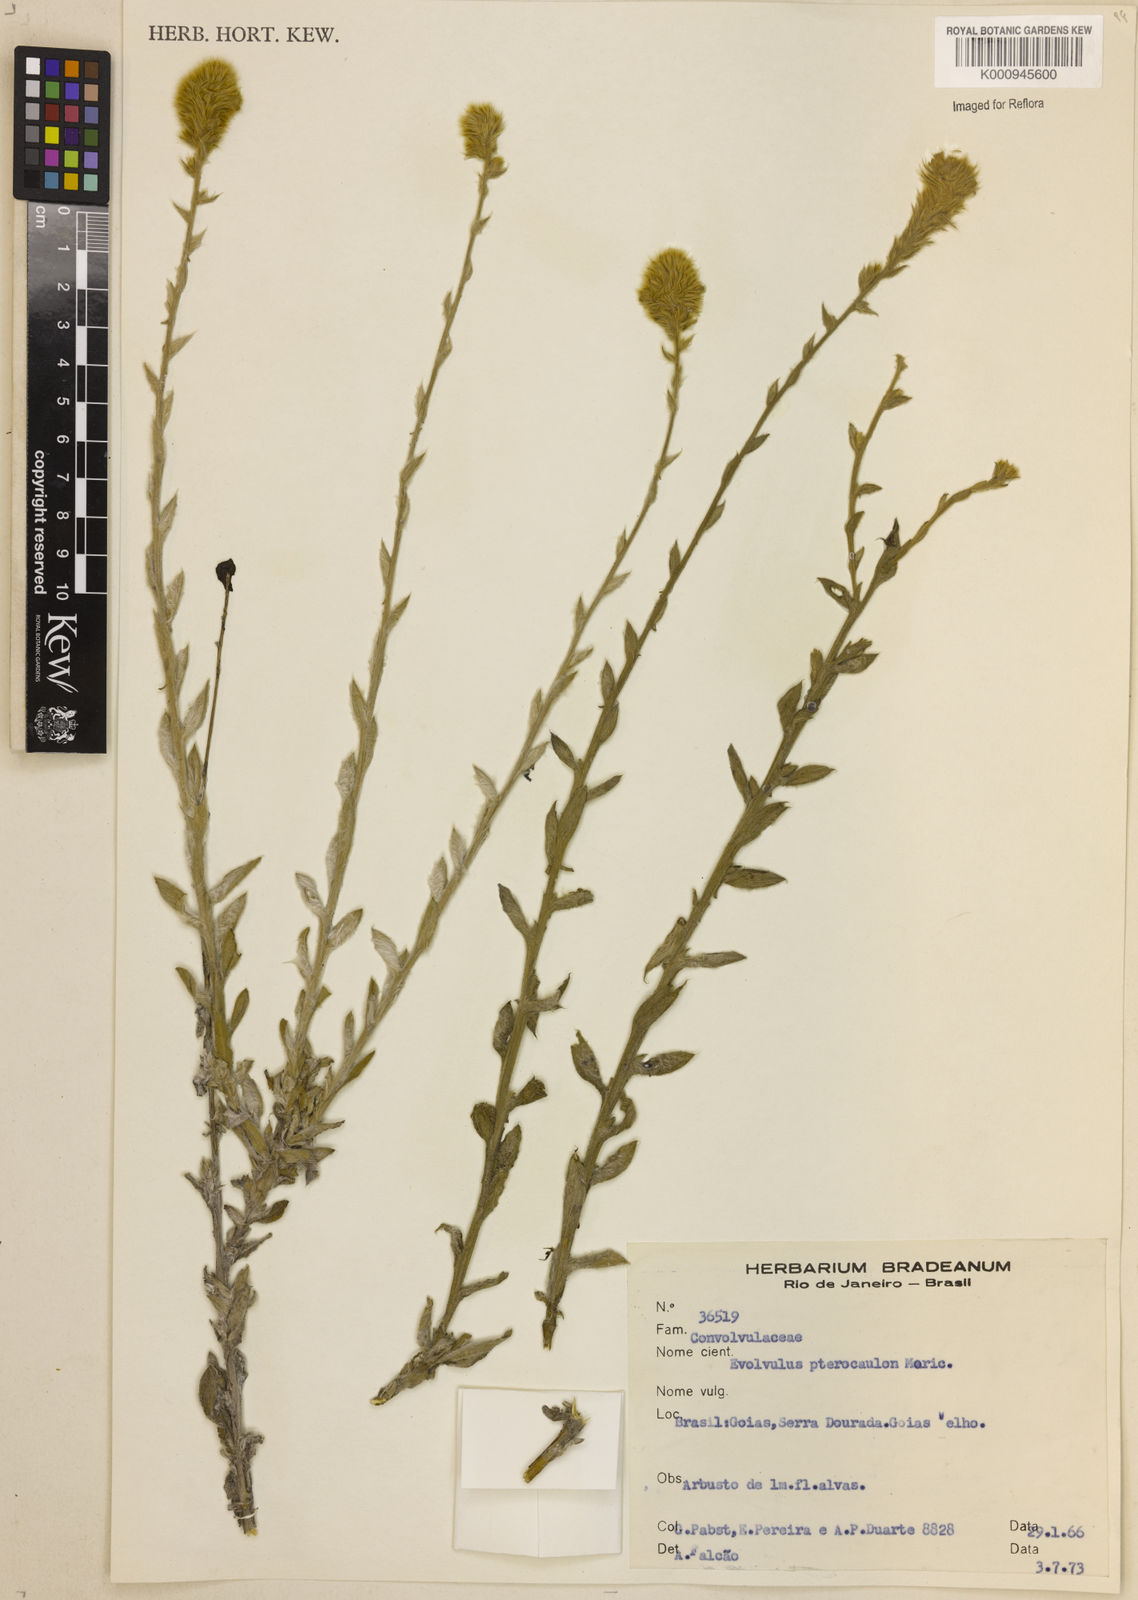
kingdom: Plantae
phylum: Tracheophyta
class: Magnoliopsida
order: Solanales
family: Convolvulaceae
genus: Evolvulus
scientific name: Evolvulus pterocaulon
